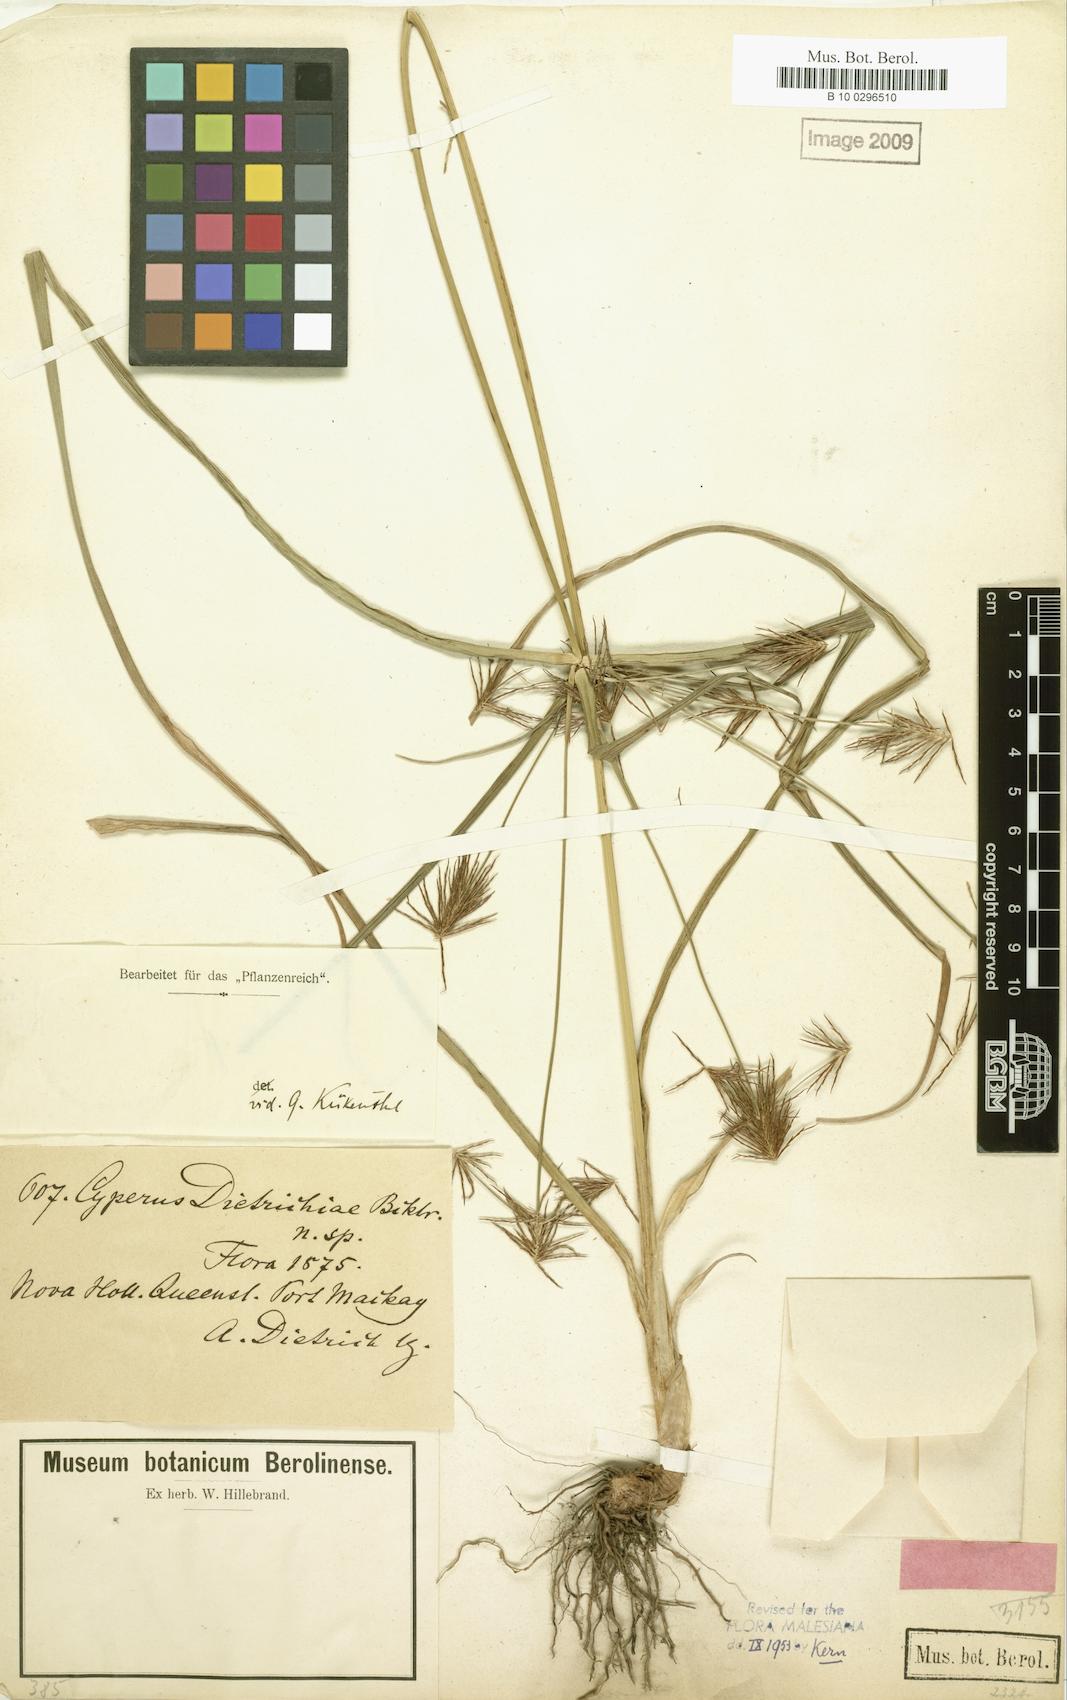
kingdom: Plantae
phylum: Tracheophyta
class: Liliopsida
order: Poales
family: Cyperaceae
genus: Cyperus
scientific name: Cyperus dietrichiae
